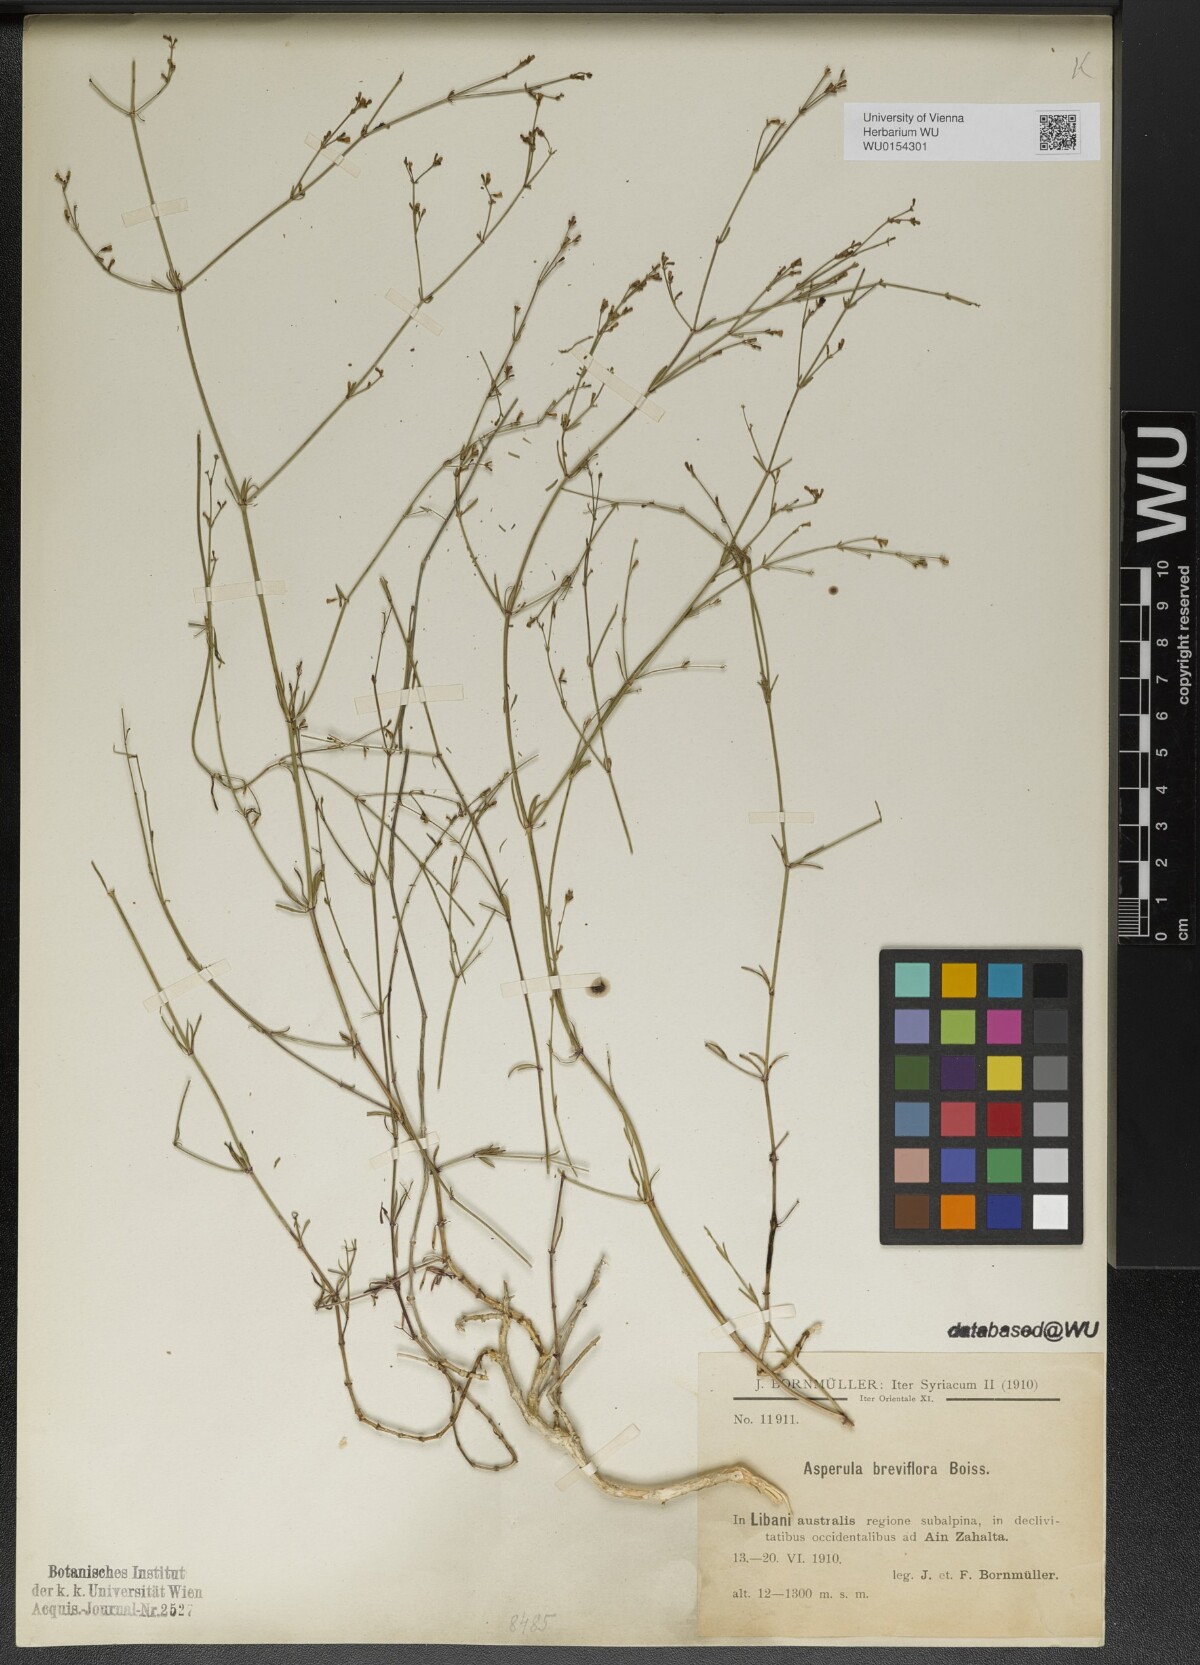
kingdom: Plantae
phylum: Tracheophyta
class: Magnoliopsida
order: Gentianales
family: Rubiaceae
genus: Cynanchica
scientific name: Cynanchica breviflora
